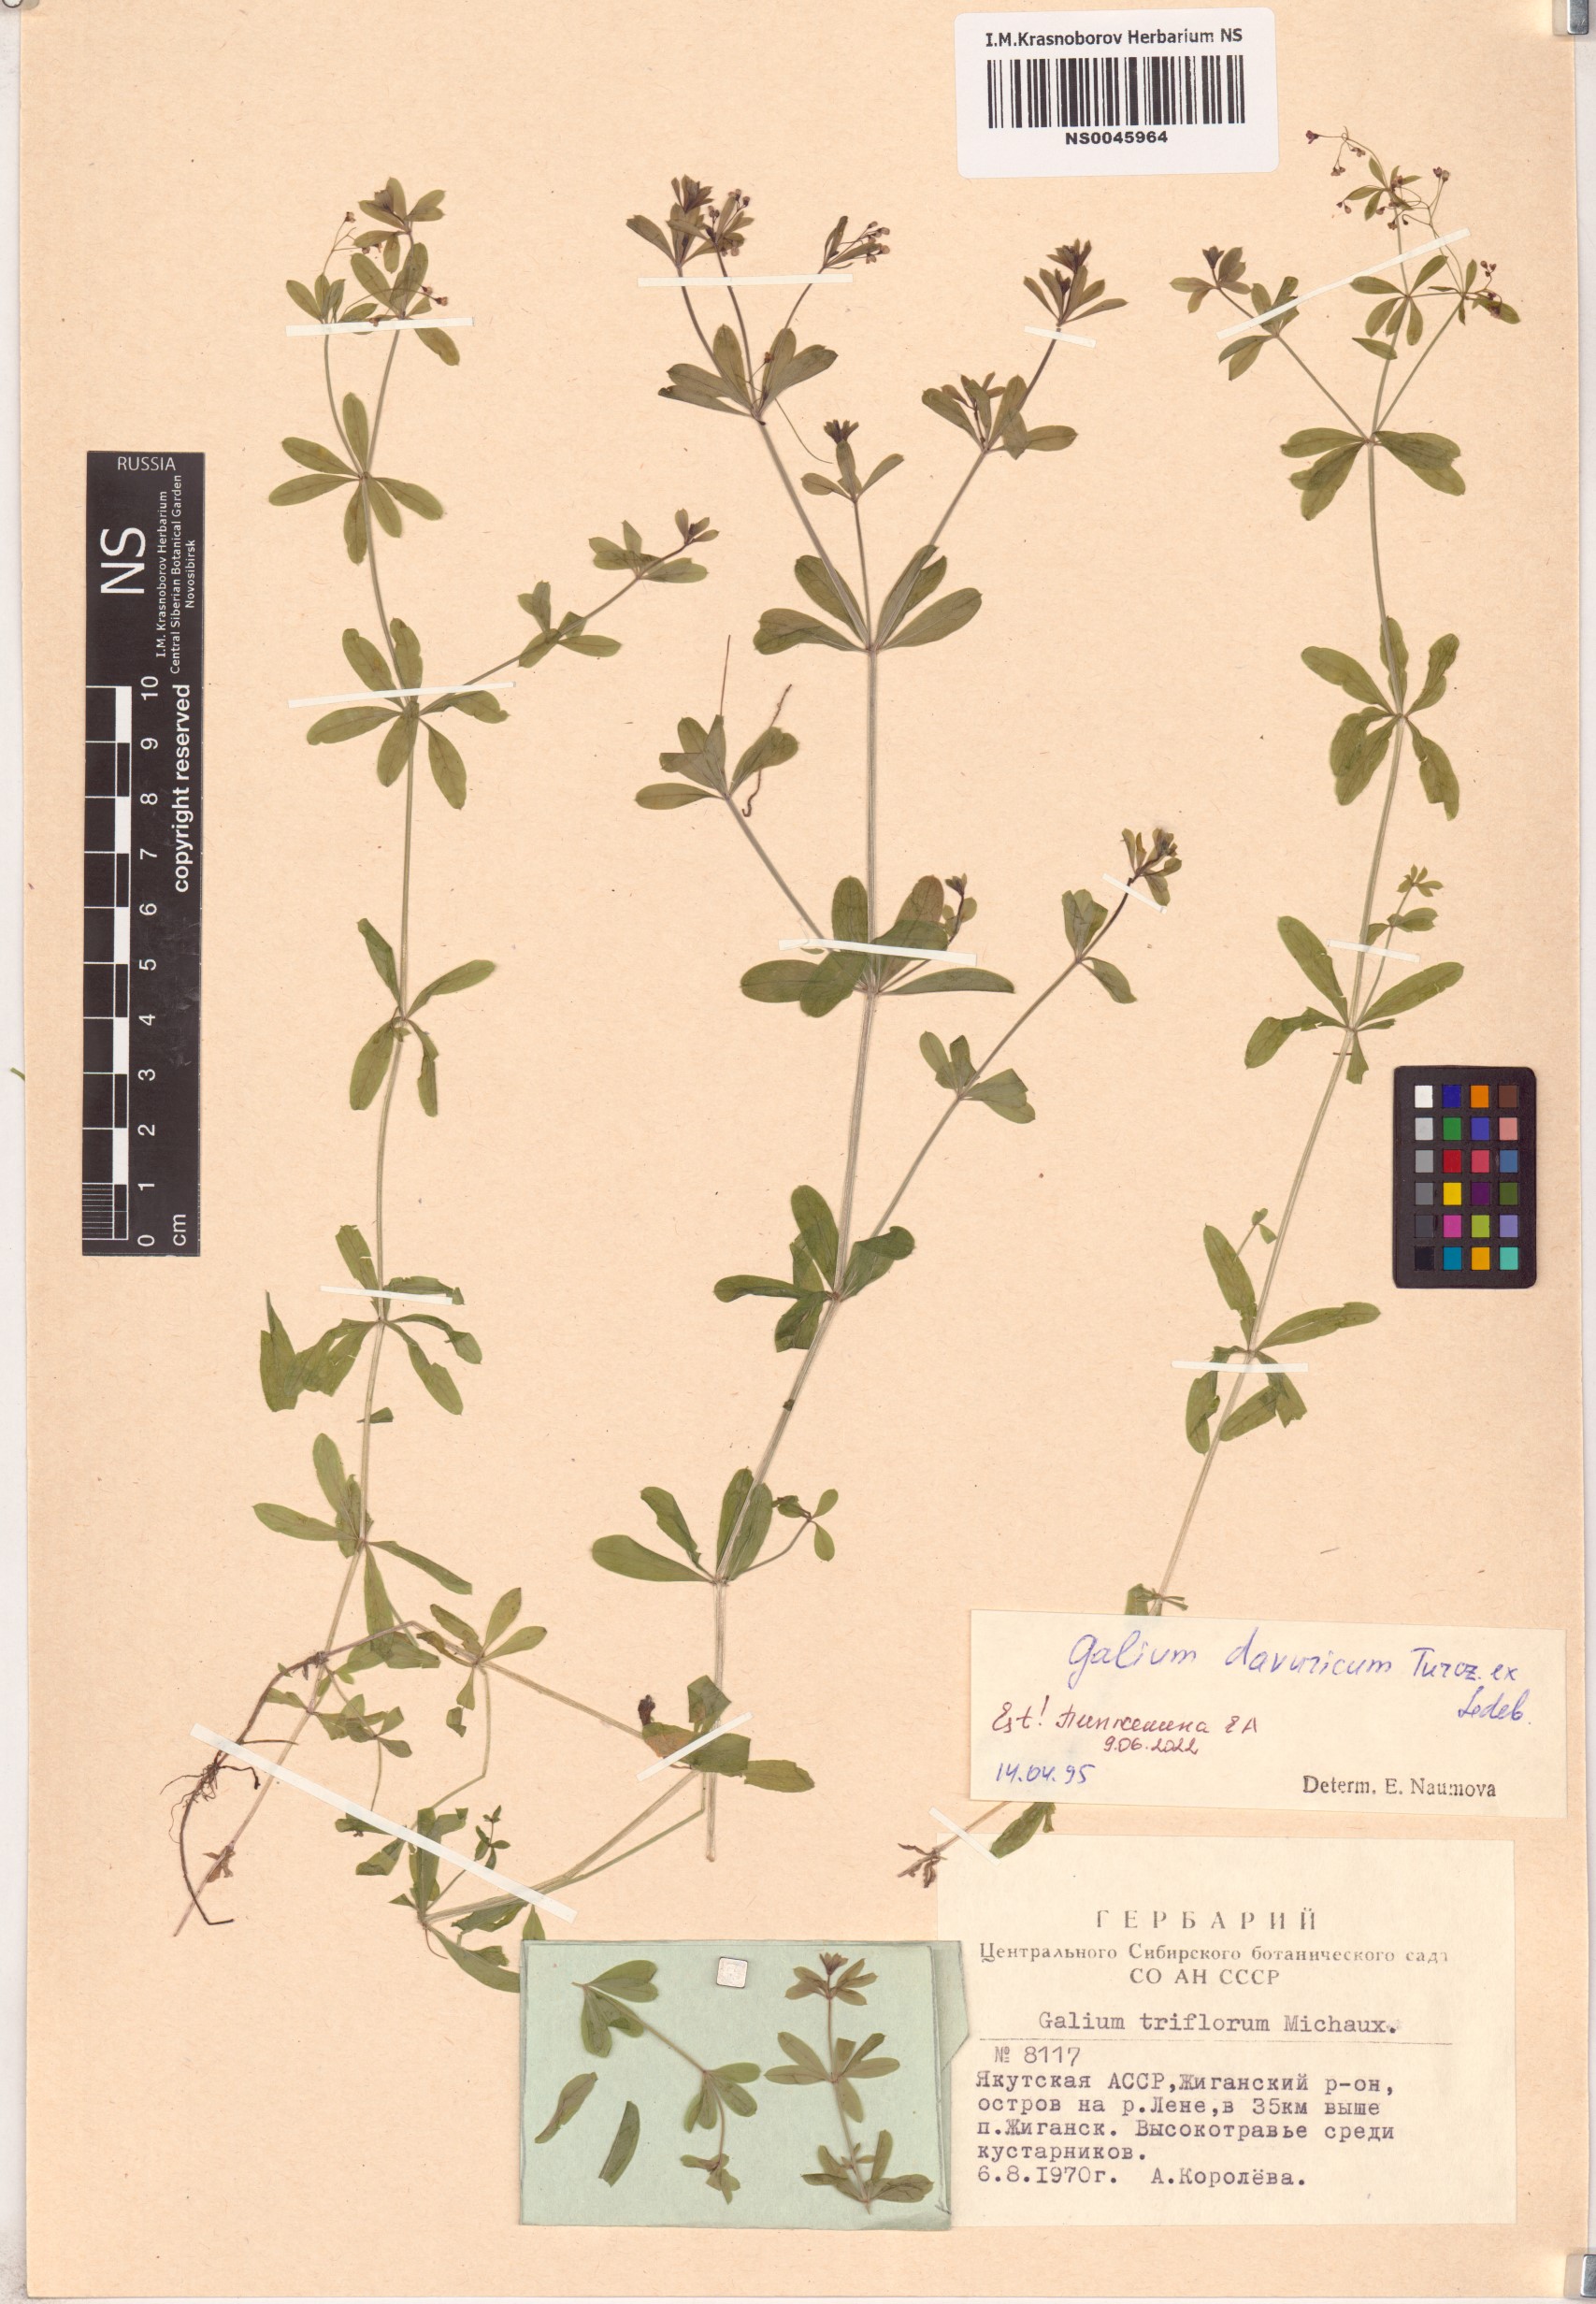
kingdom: Plantae
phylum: Tracheophyta
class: Magnoliopsida
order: Gentianales
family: Rubiaceae
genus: Galium
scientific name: Galium dahuricum
